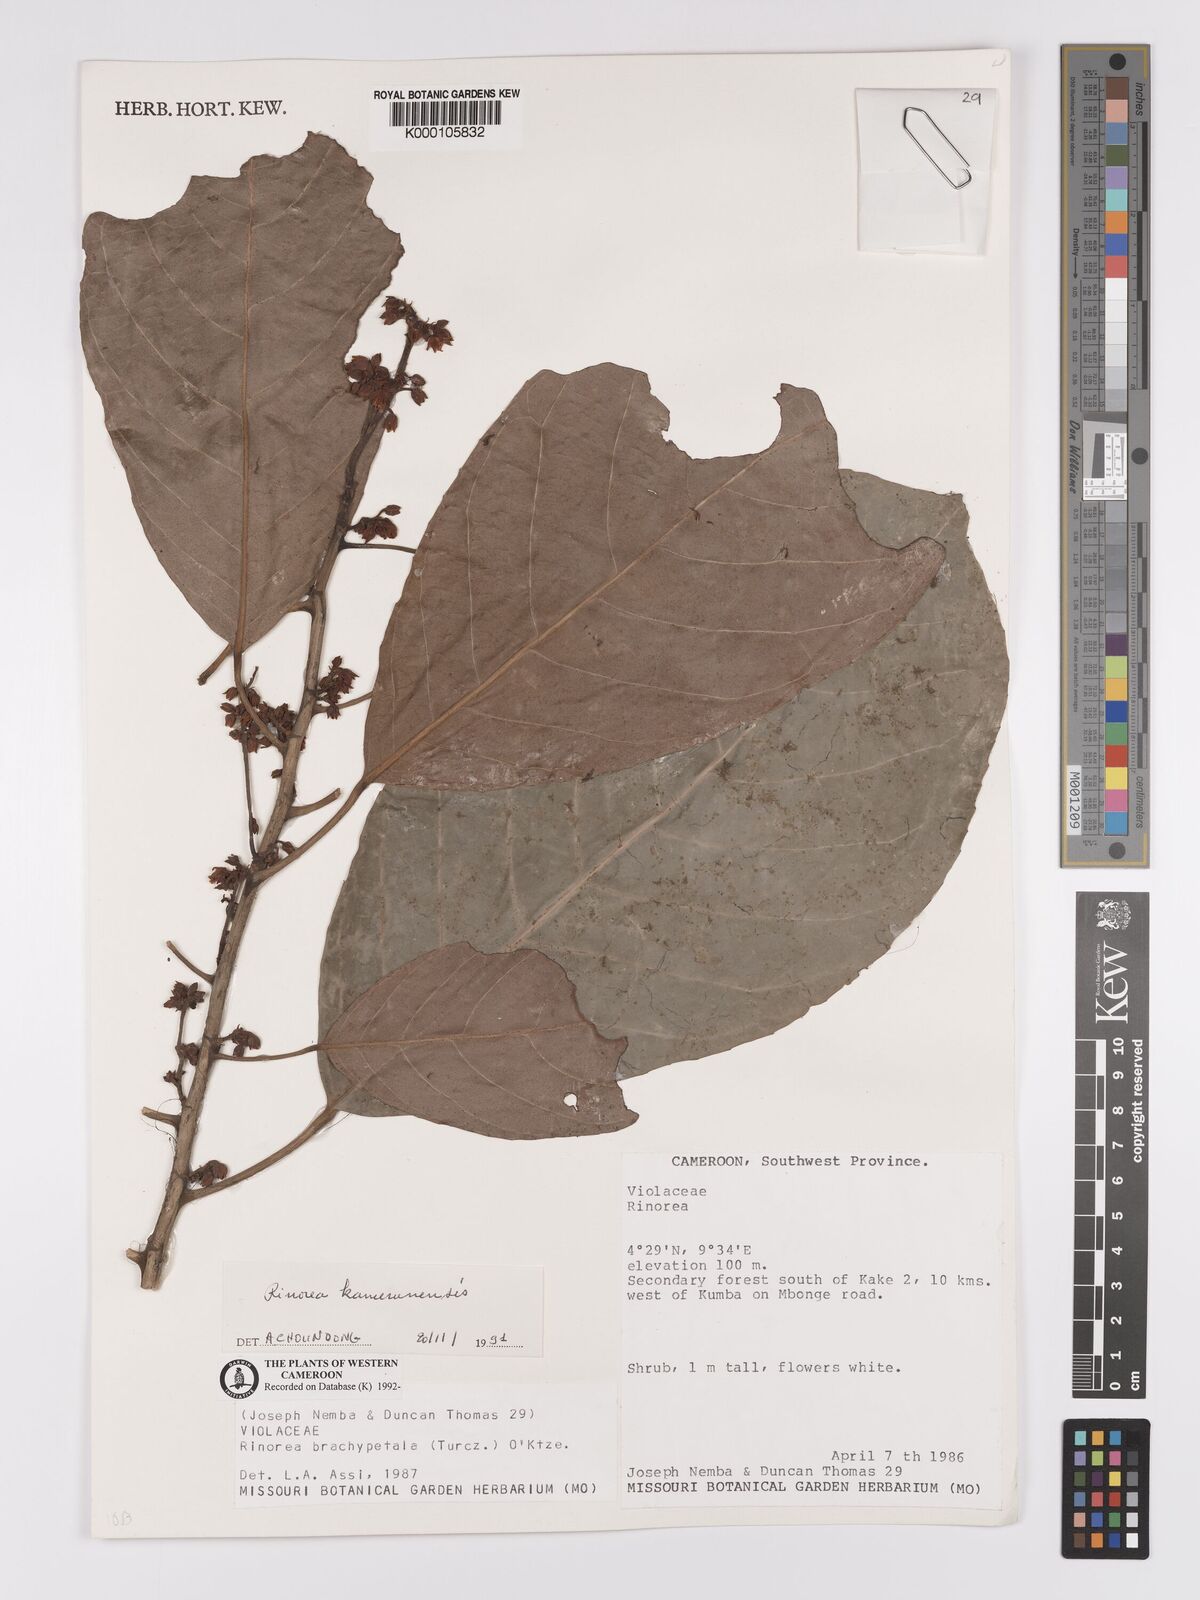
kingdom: Plantae
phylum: Tracheophyta
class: Magnoliopsida
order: Malpighiales
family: Violaceae
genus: Rinorea
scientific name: Rinorea kamerunensis
